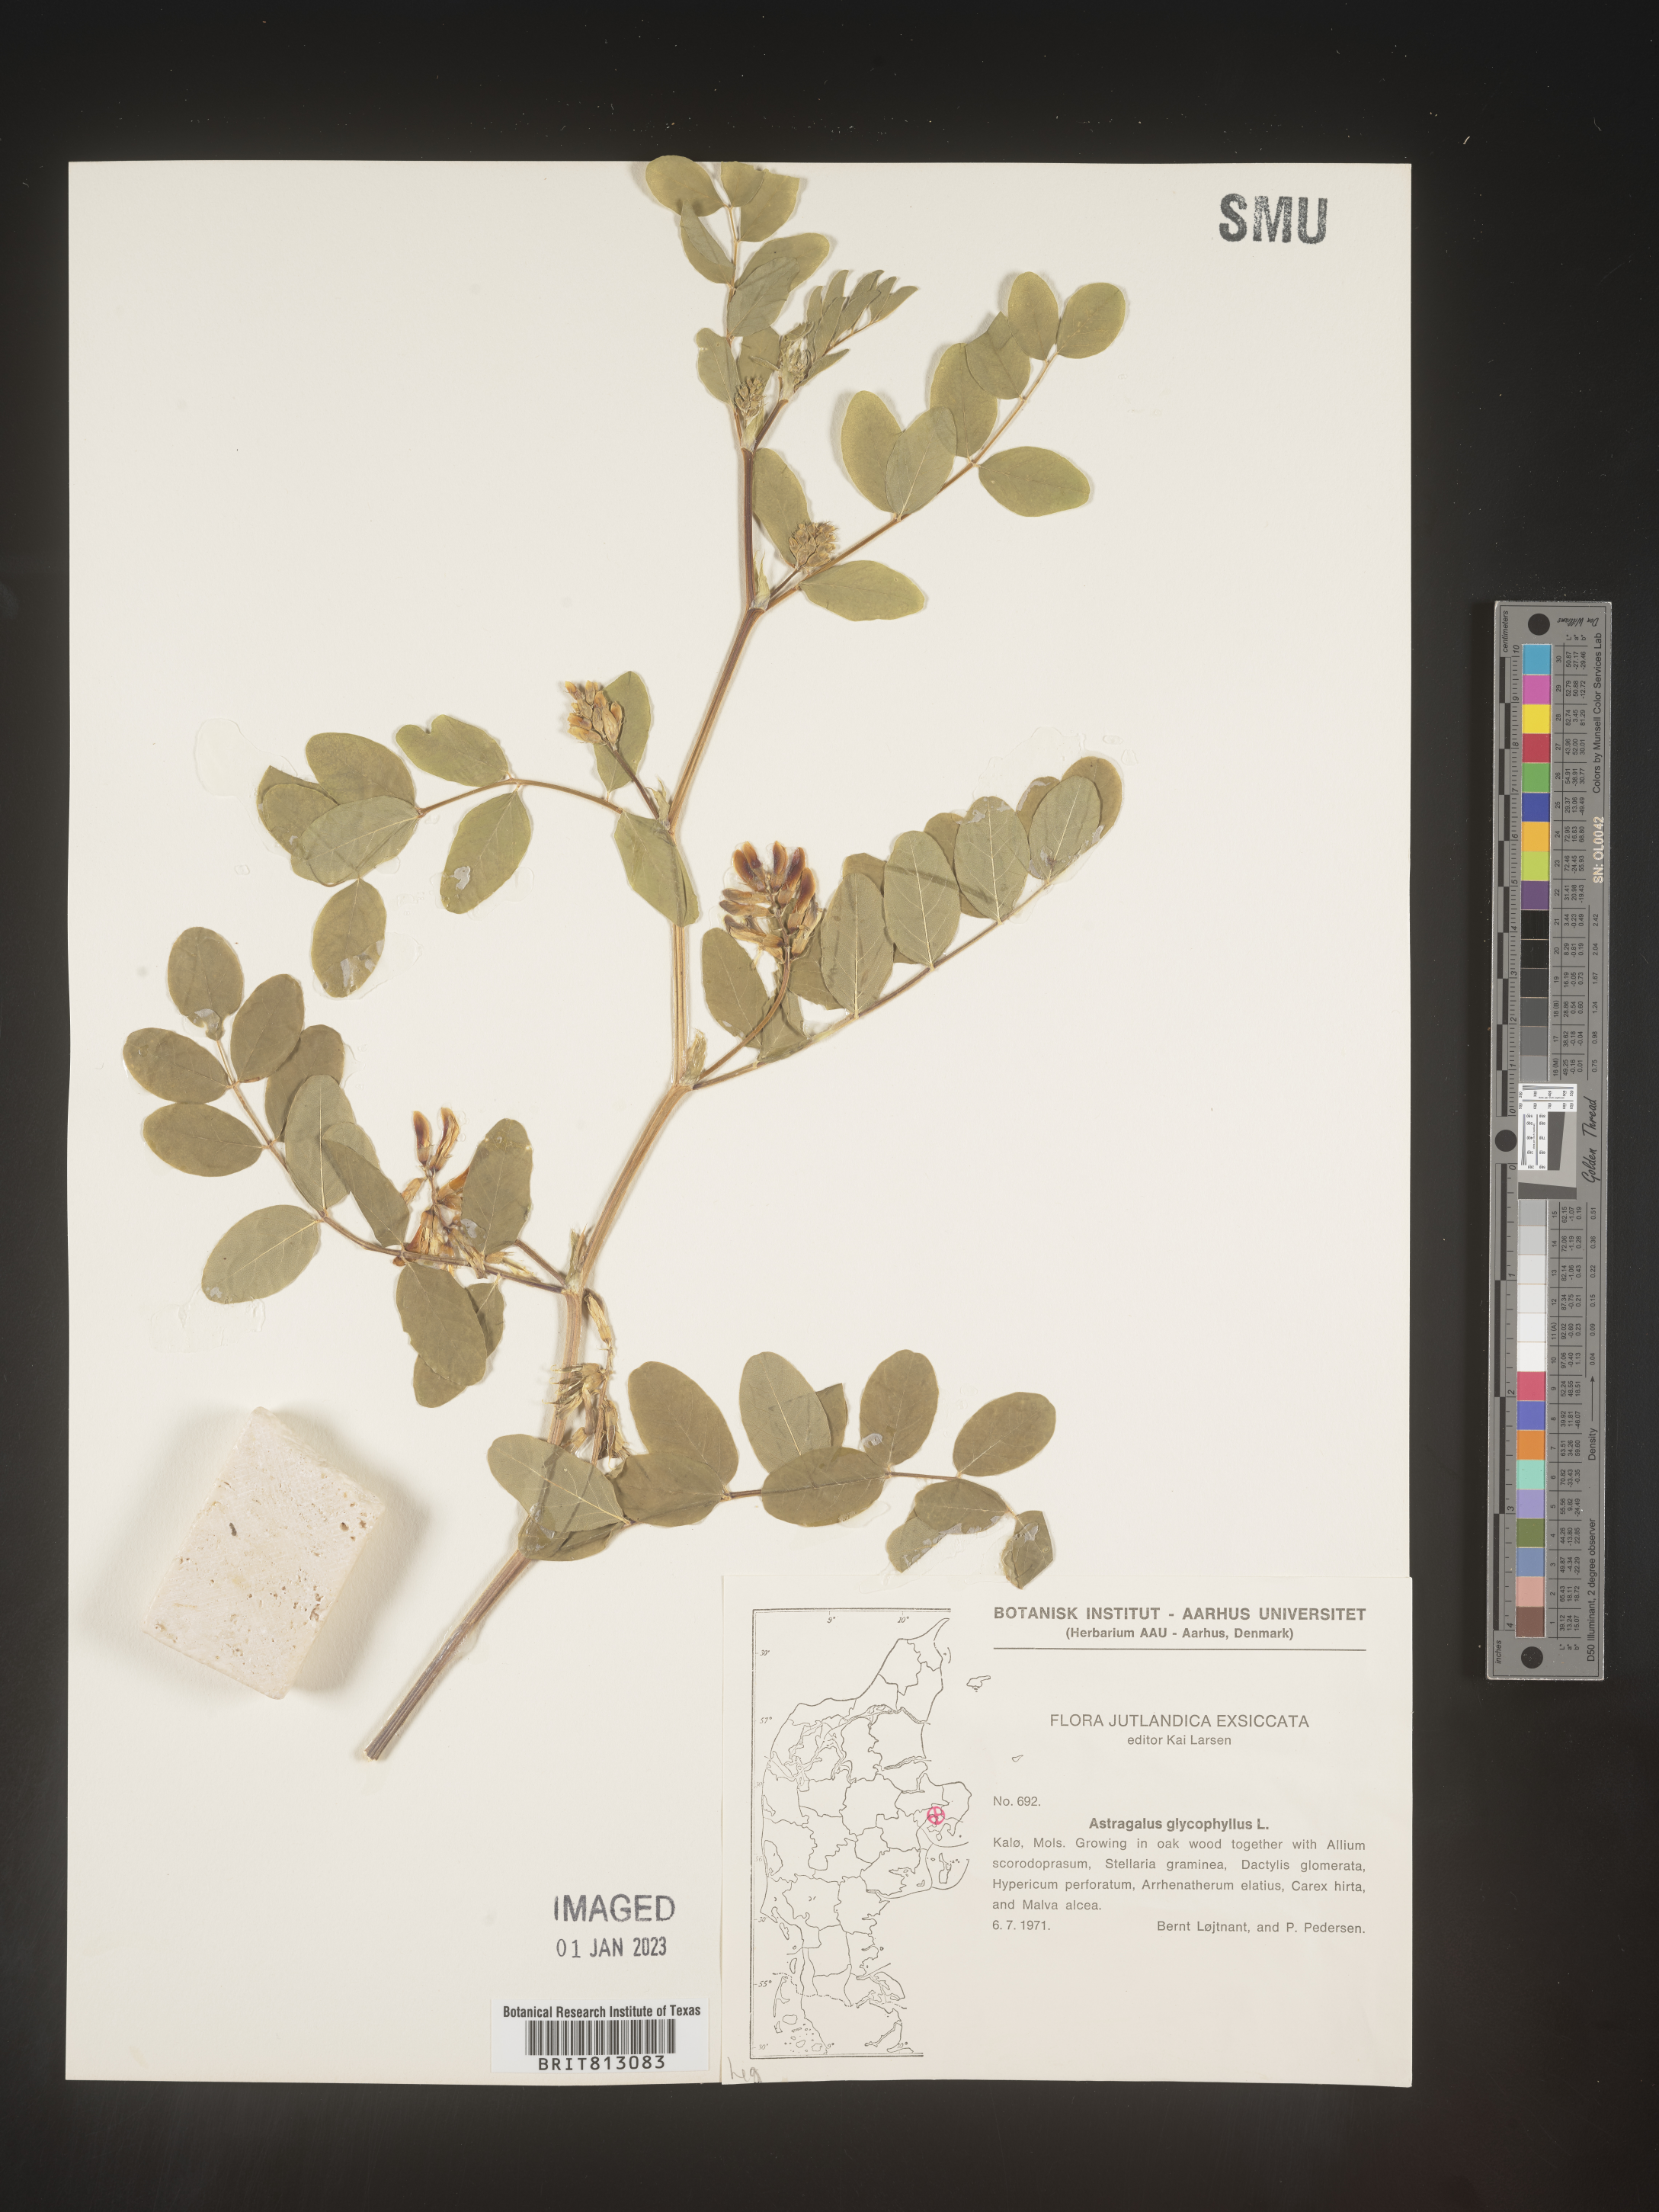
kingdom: Plantae
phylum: Tracheophyta
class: Magnoliopsida
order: Fabales
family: Fabaceae
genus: Astragalus
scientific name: Astragalus
